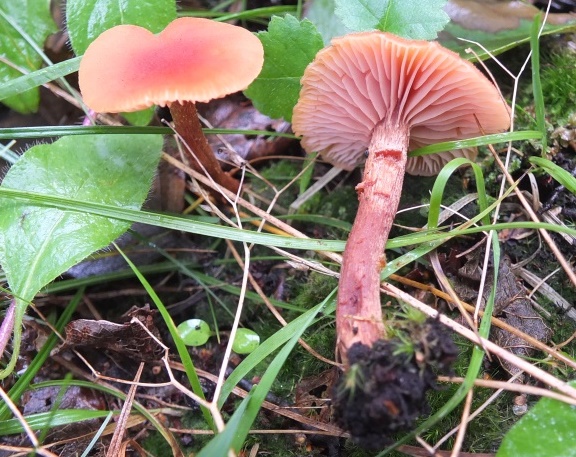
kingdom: Fungi
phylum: Basidiomycota
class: Agaricomycetes
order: Agaricales
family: Hydnangiaceae
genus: Laccaria
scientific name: Laccaria proxima
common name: stor ametysthat
